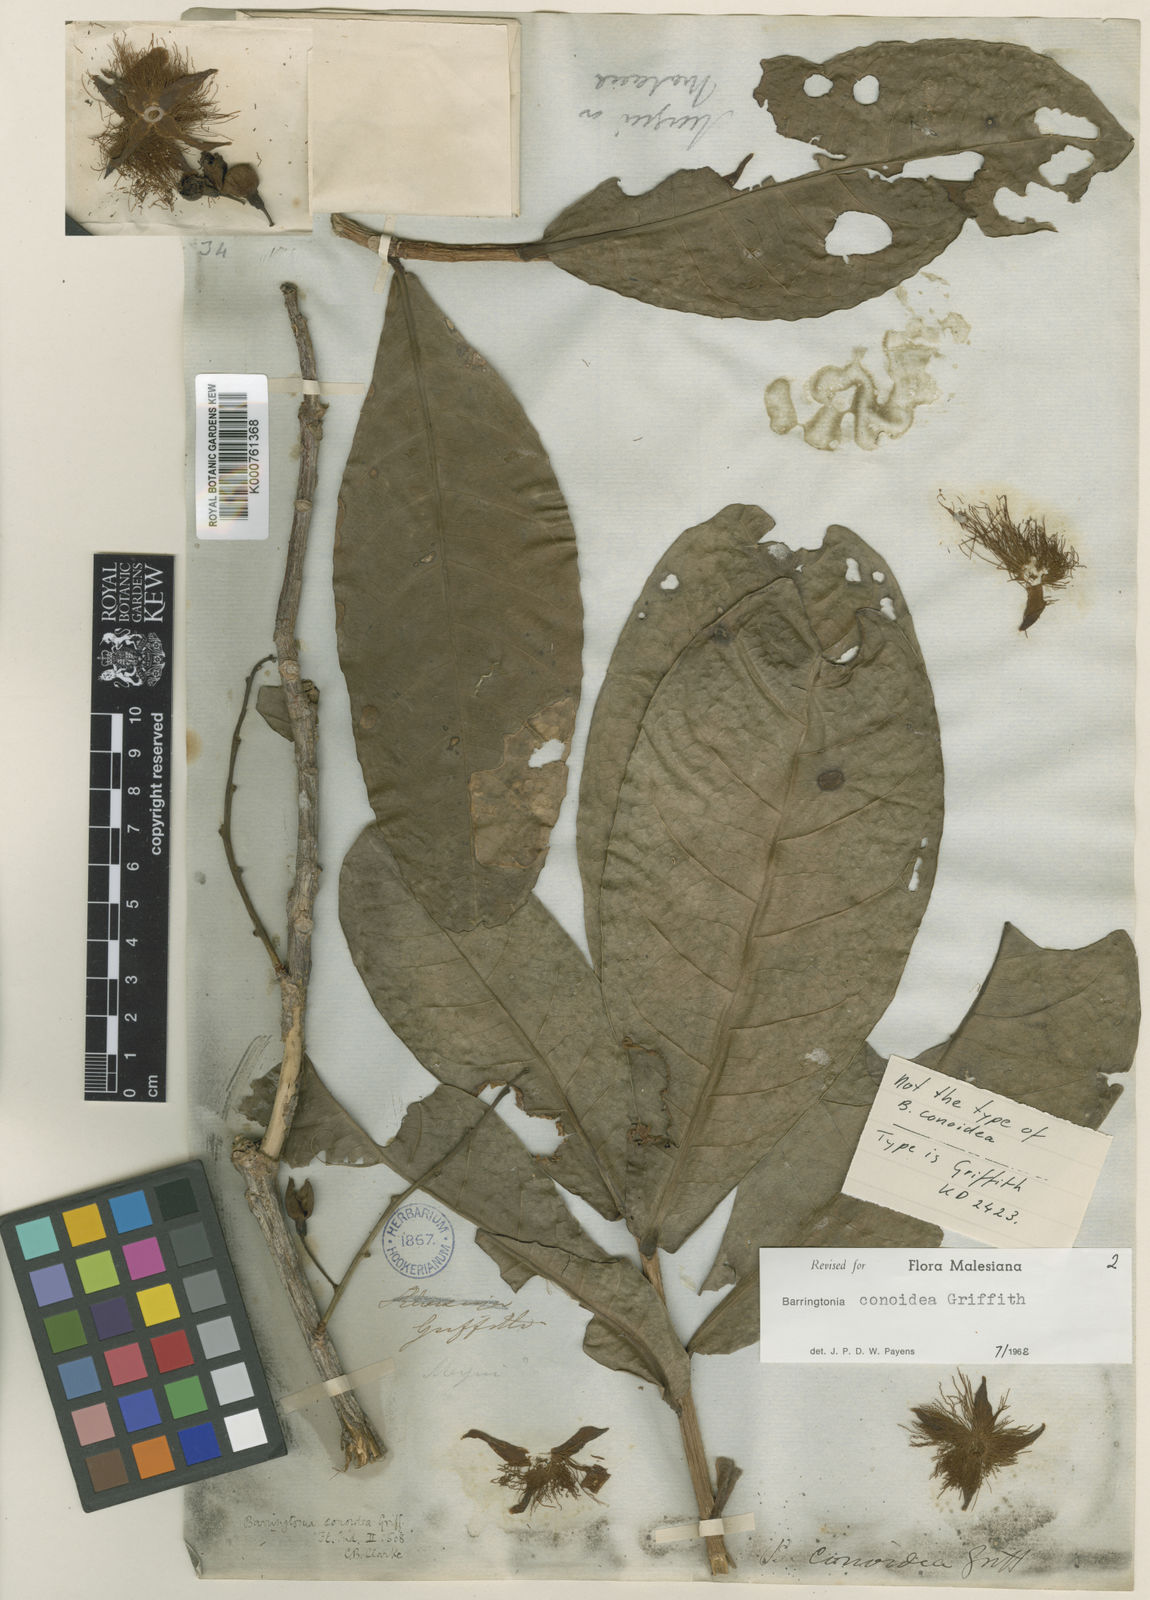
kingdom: Plantae
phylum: Tracheophyta
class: Magnoliopsida
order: Ericales
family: Lecythidaceae
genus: Barringtonia
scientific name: Barringtonia conoidea
